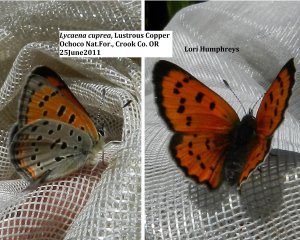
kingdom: Animalia
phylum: Arthropoda
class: Insecta
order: Lepidoptera
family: Lycaenidae
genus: Lycaena
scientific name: Lycaena cupreus
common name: Lustrous Copper
